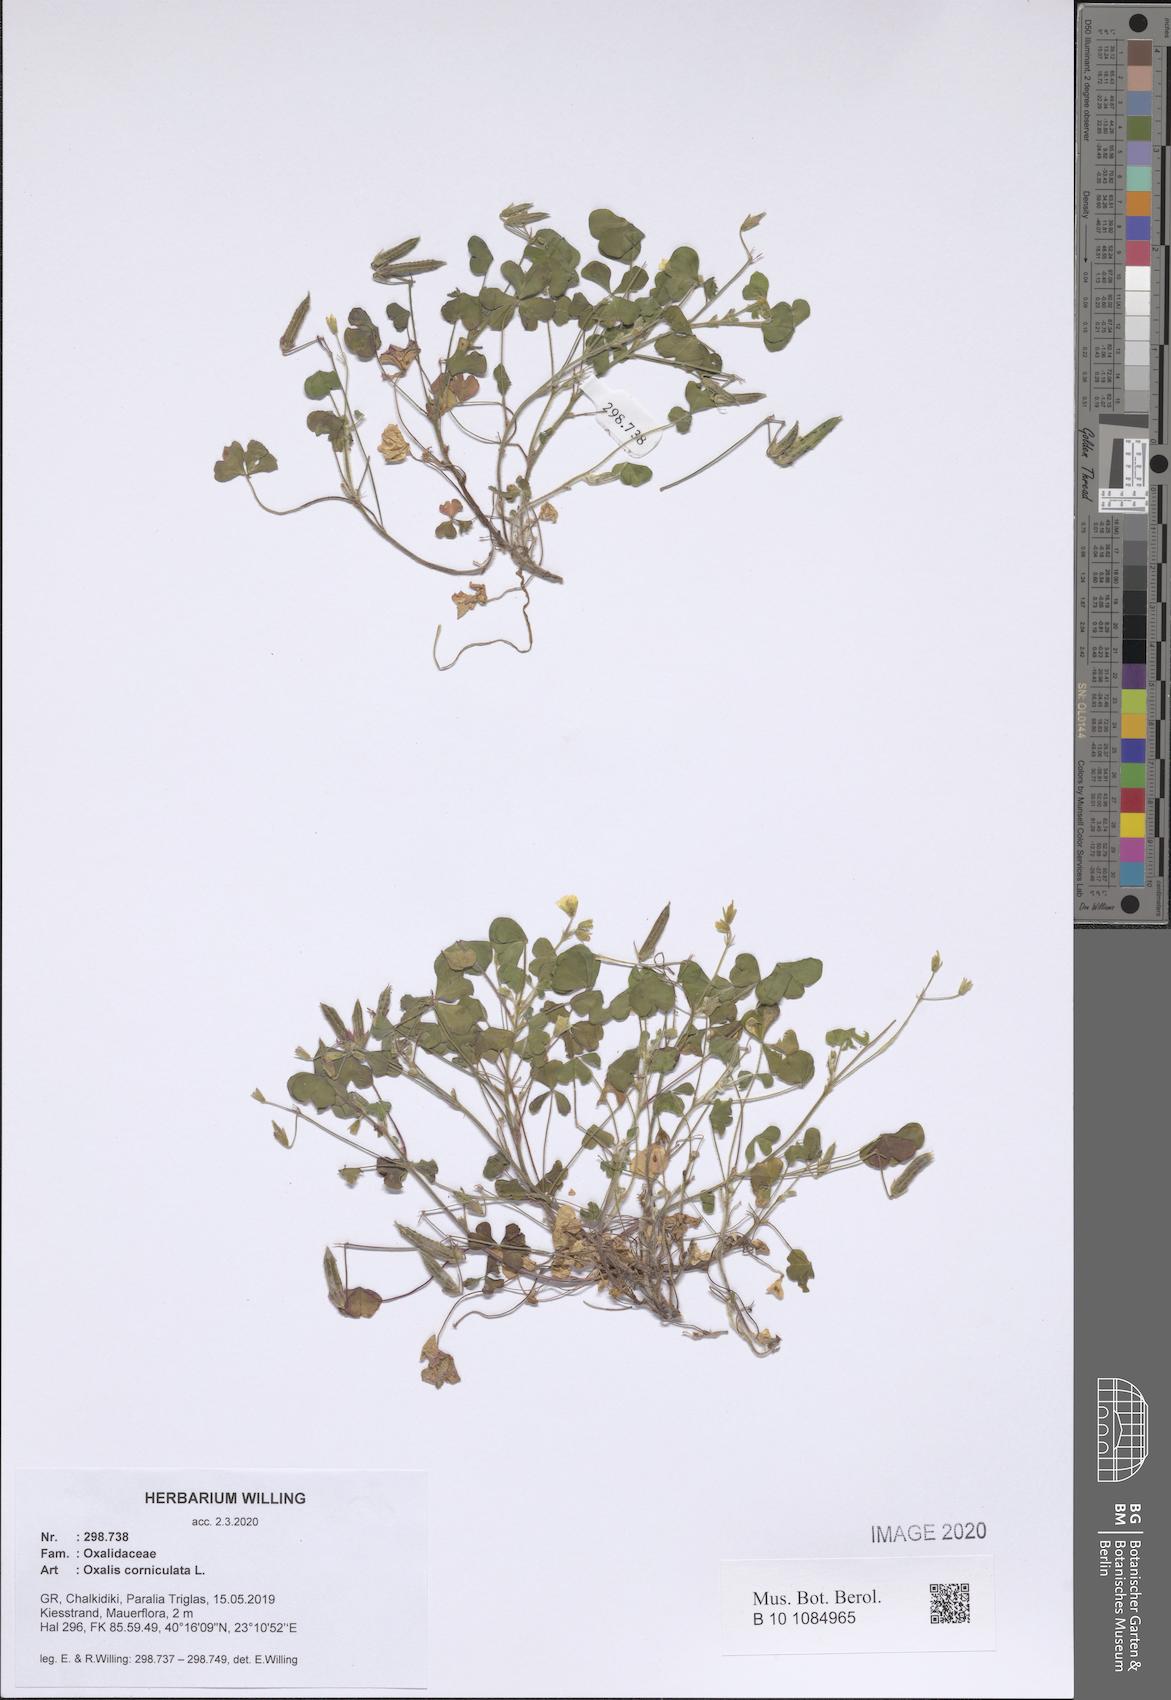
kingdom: Plantae
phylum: Tracheophyta
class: Magnoliopsida
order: Oxalidales
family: Oxalidaceae
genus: Oxalis
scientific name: Oxalis corniculata
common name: Procumbent yellow-sorrel
